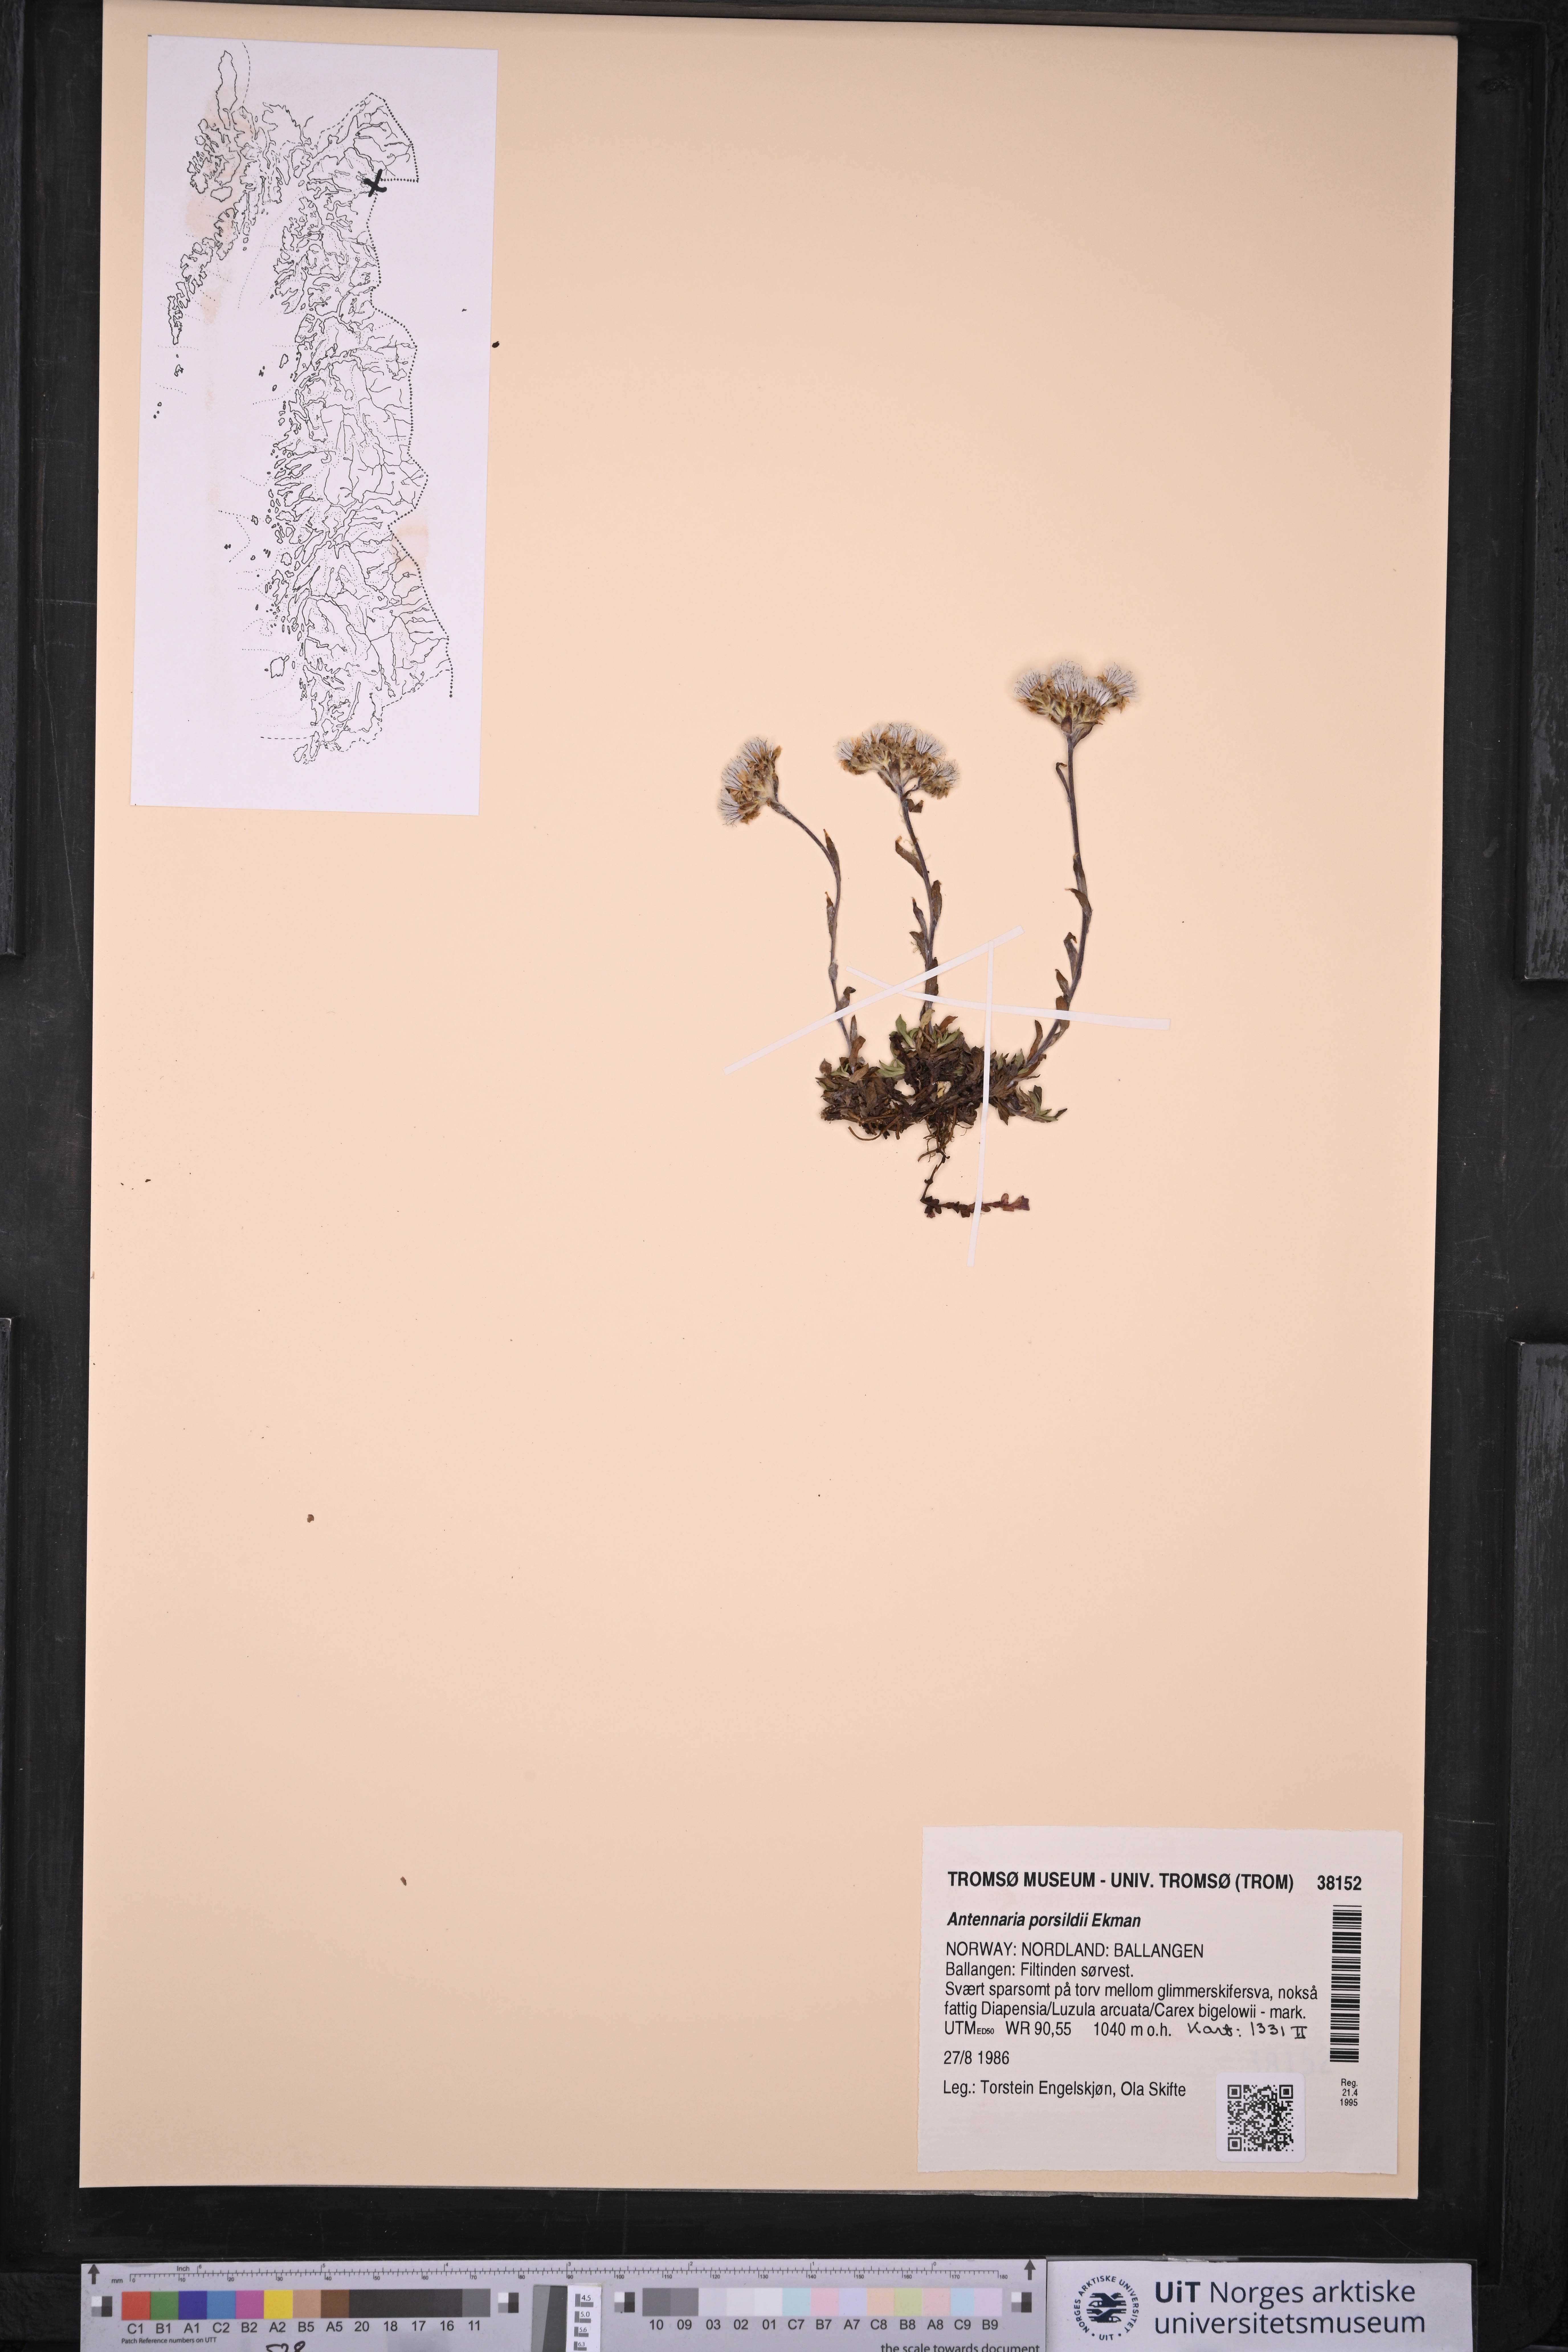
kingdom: Plantae
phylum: Tracheophyta
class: Magnoliopsida
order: Asterales
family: Asteraceae
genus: Antennaria
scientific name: Antennaria porsildii
